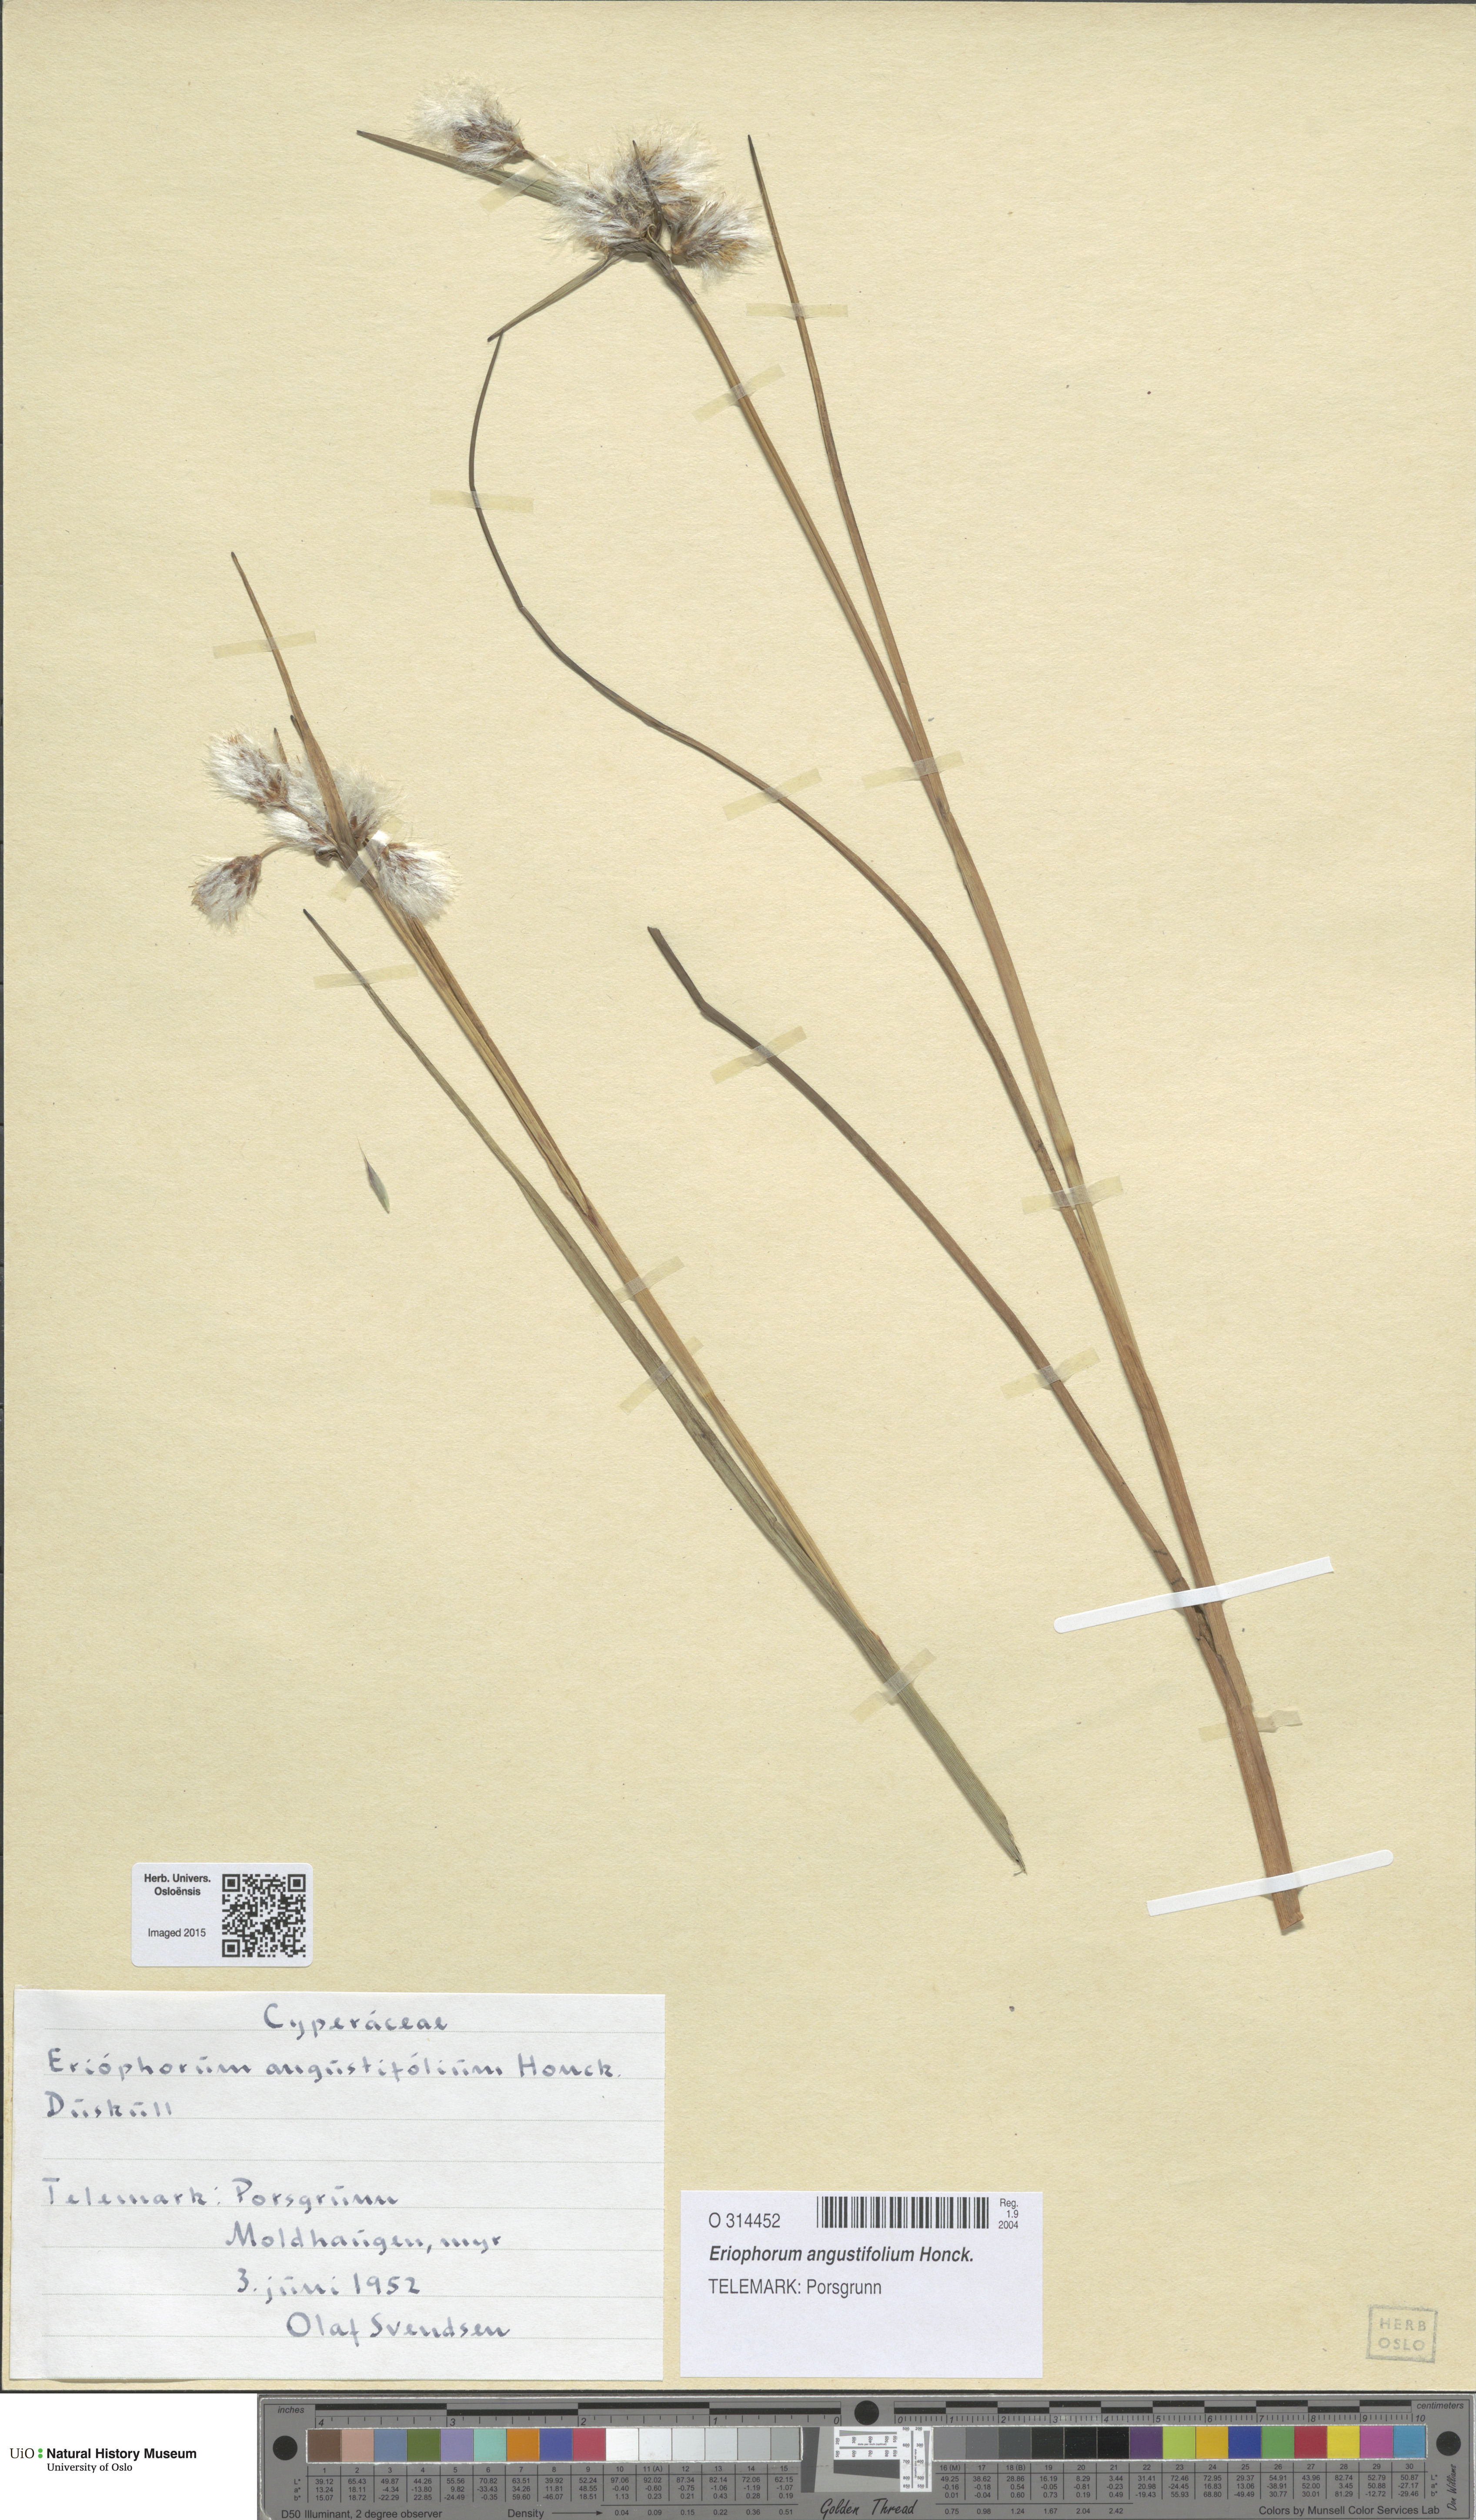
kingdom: Plantae
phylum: Tracheophyta
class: Liliopsida
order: Poales
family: Cyperaceae
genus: Eriophorum
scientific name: Eriophorum angustifolium
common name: Common cottongrass
